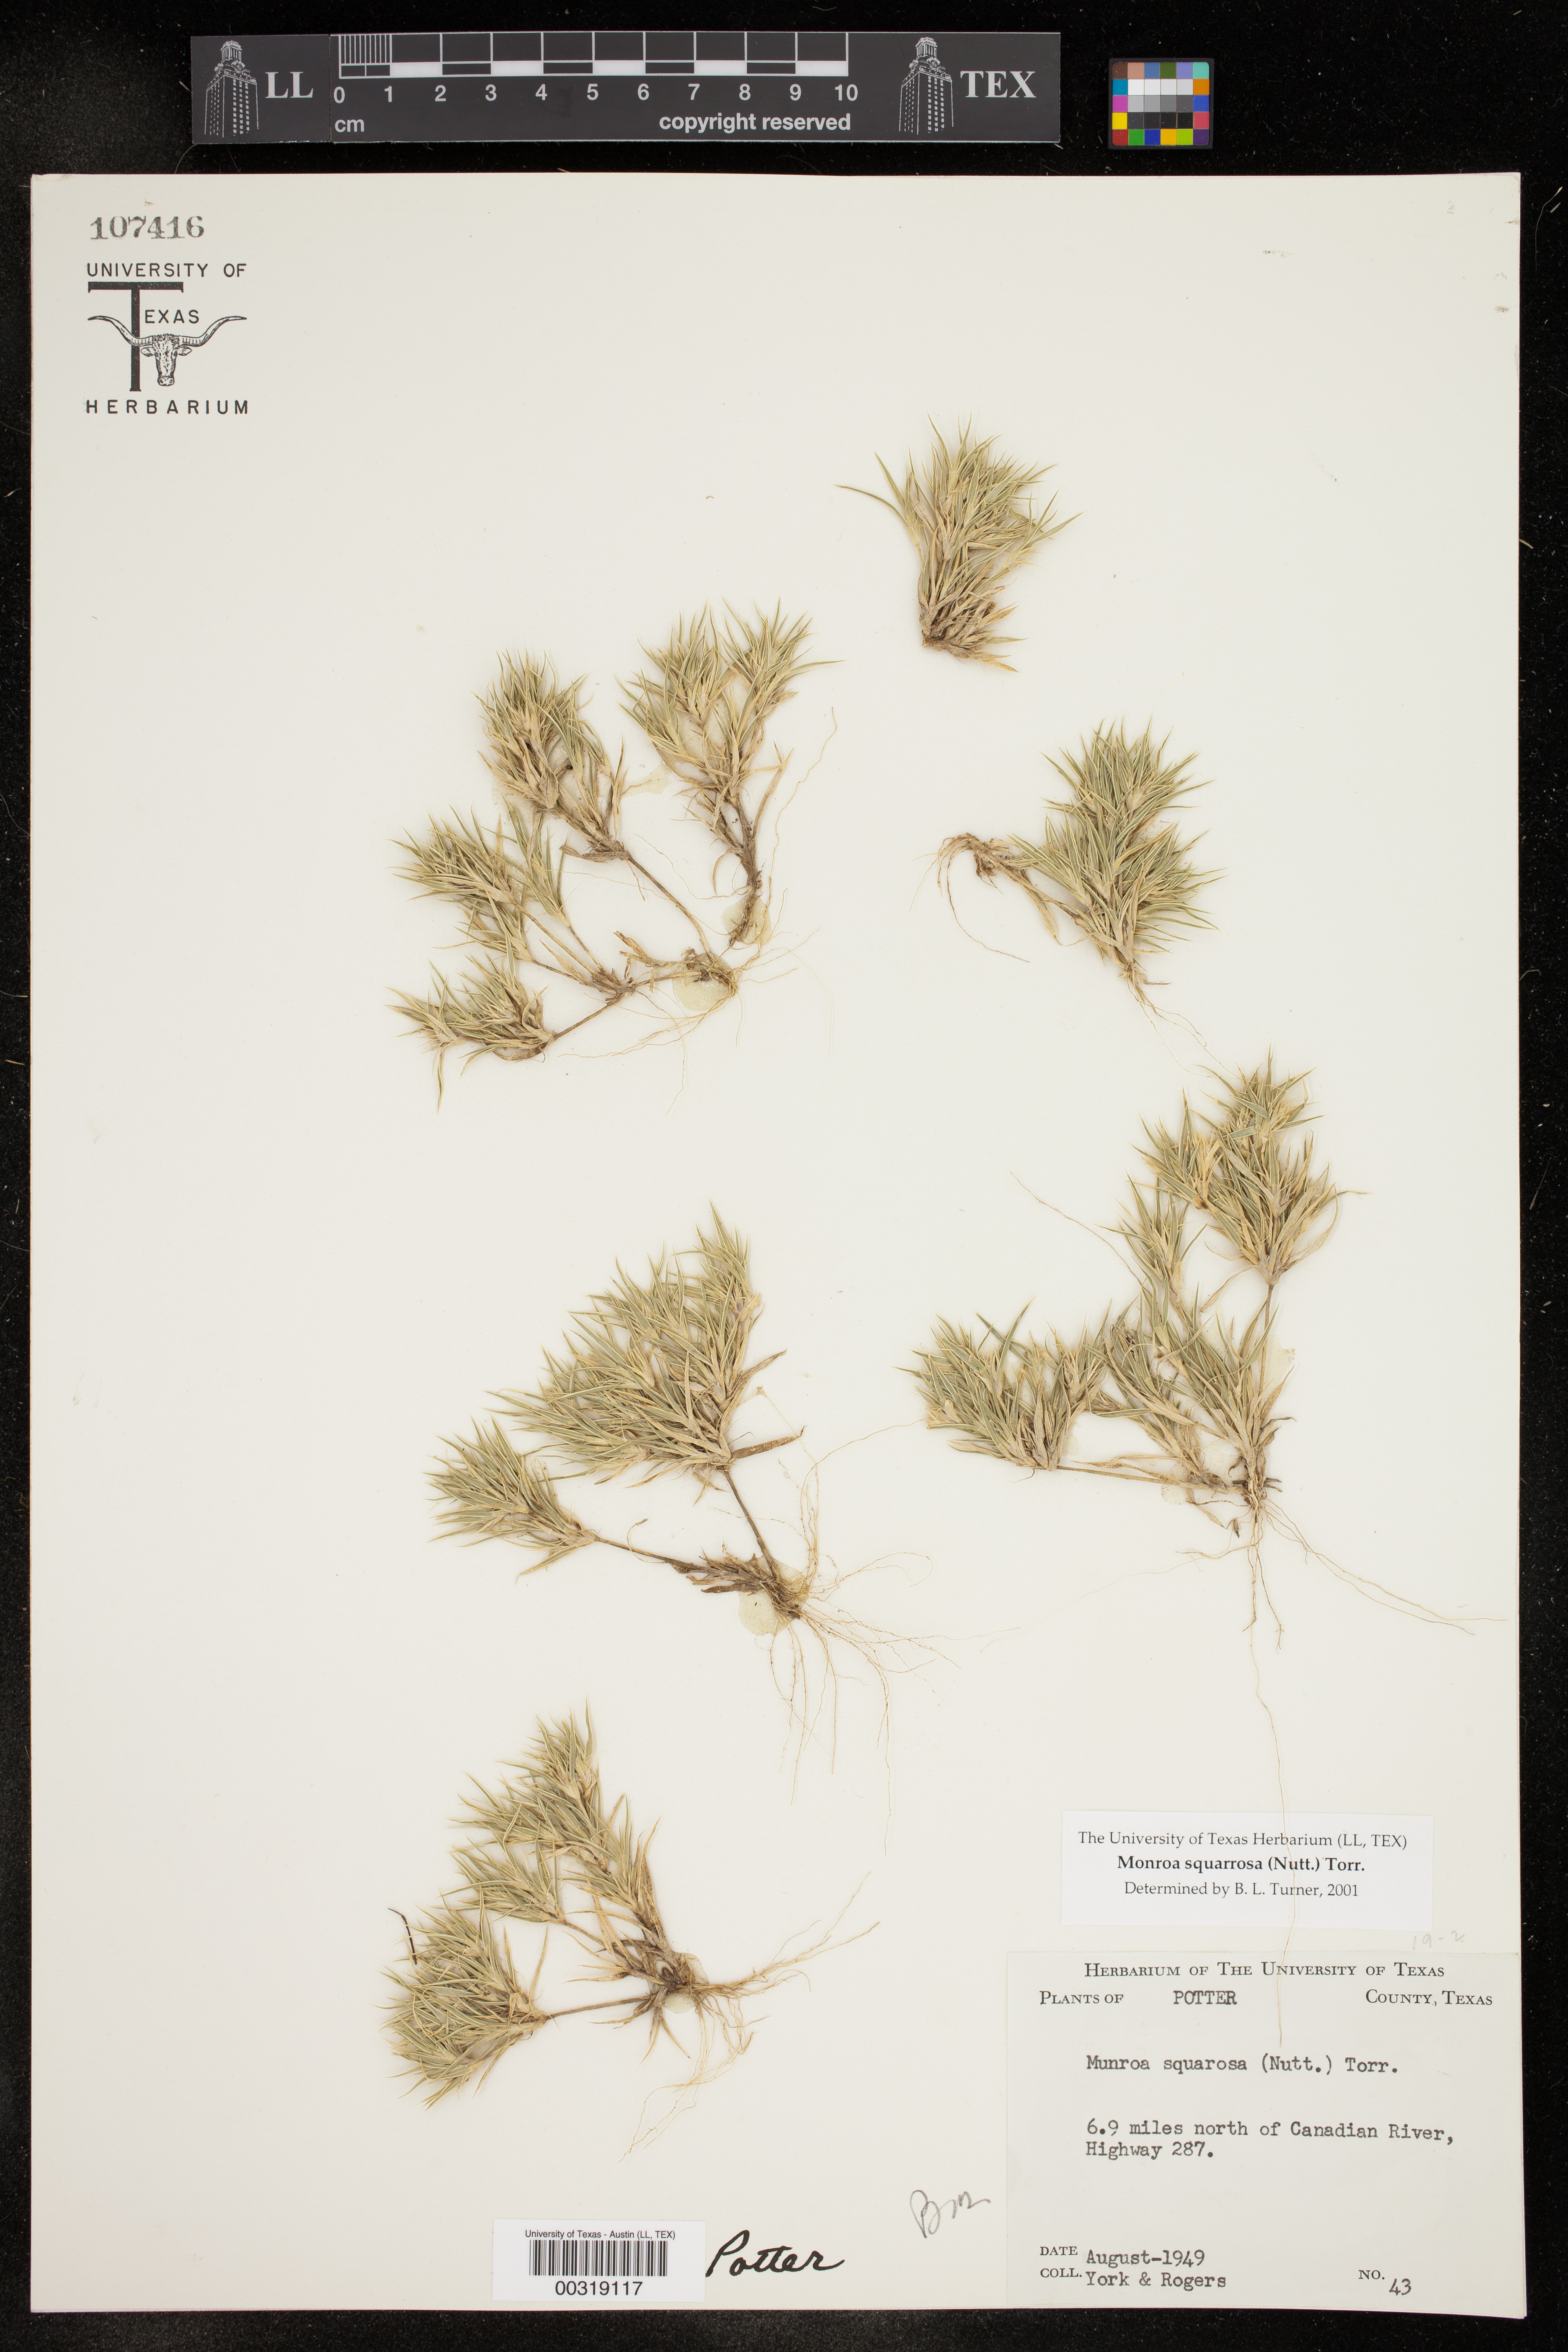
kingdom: Plantae
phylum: Tracheophyta
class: Liliopsida
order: Poales
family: Poaceae
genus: Munroa
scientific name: Munroa squarrosa
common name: False buffalo grass
